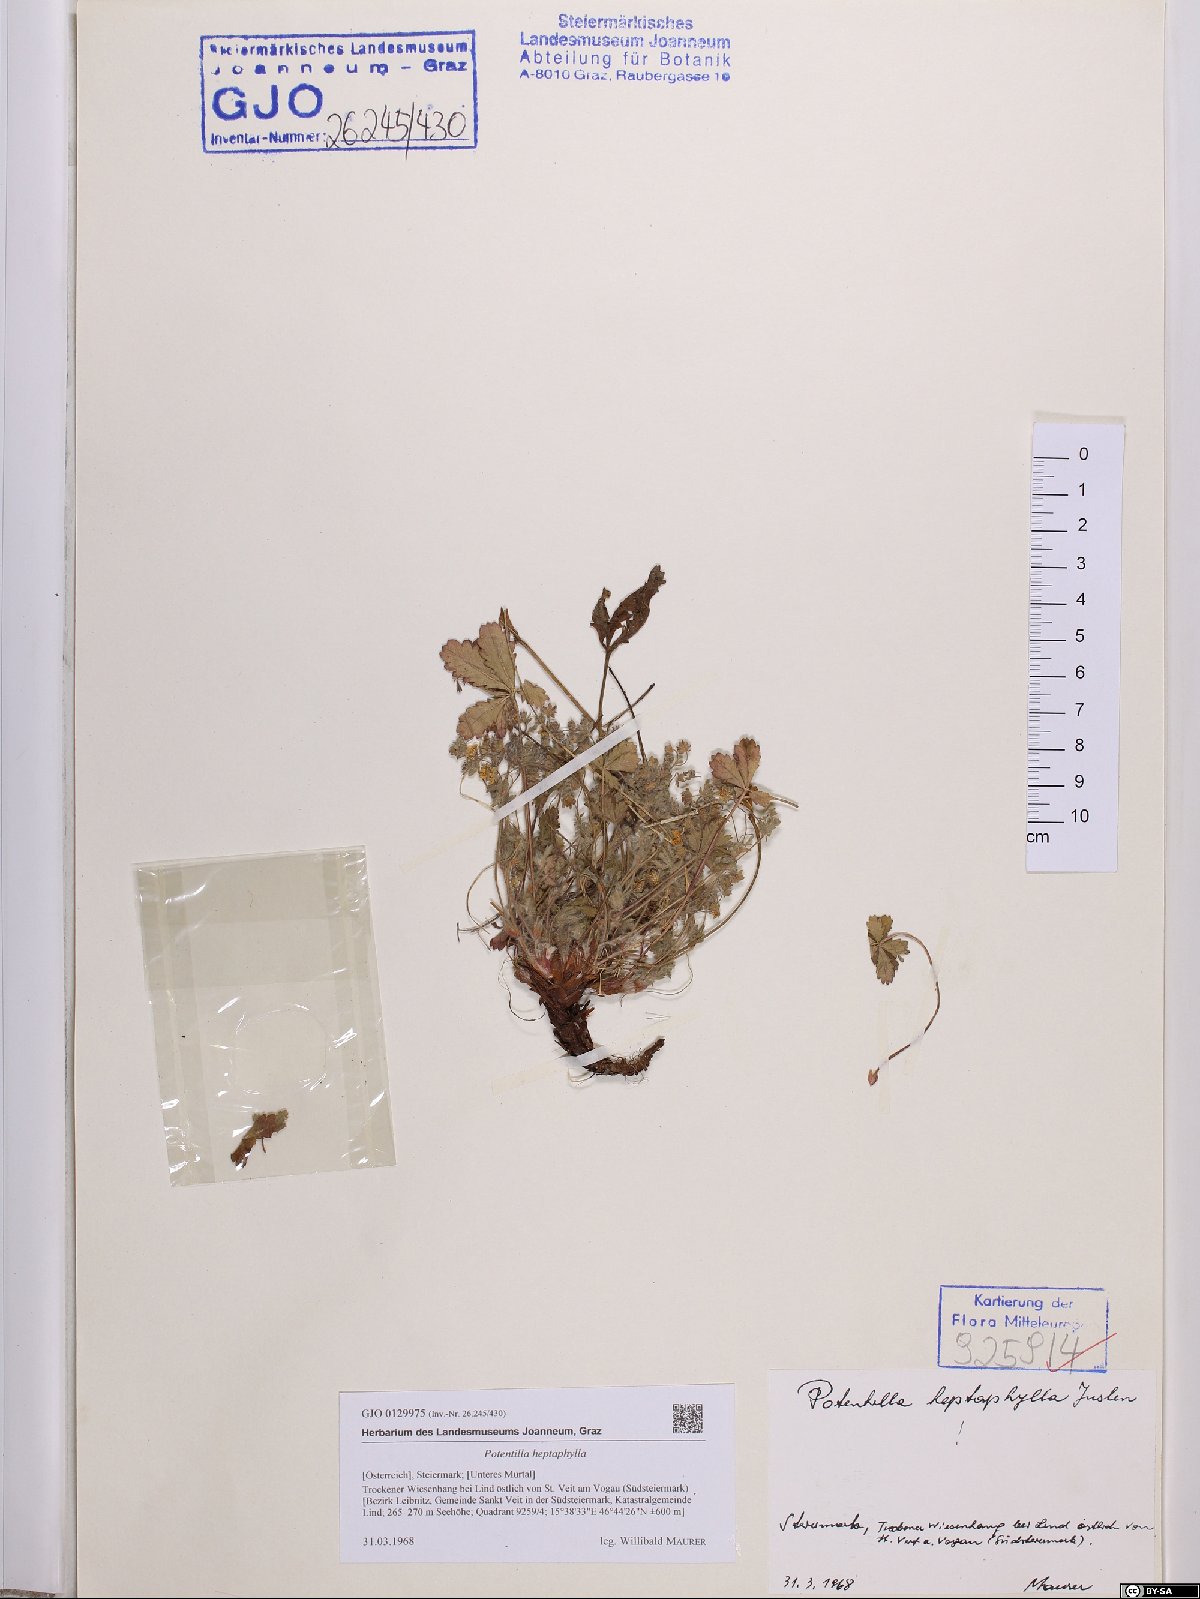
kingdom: Plantae
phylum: Tracheophyta
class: Magnoliopsida
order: Rosales
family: Rosaceae
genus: Potentilla
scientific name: Potentilla heptaphylla
